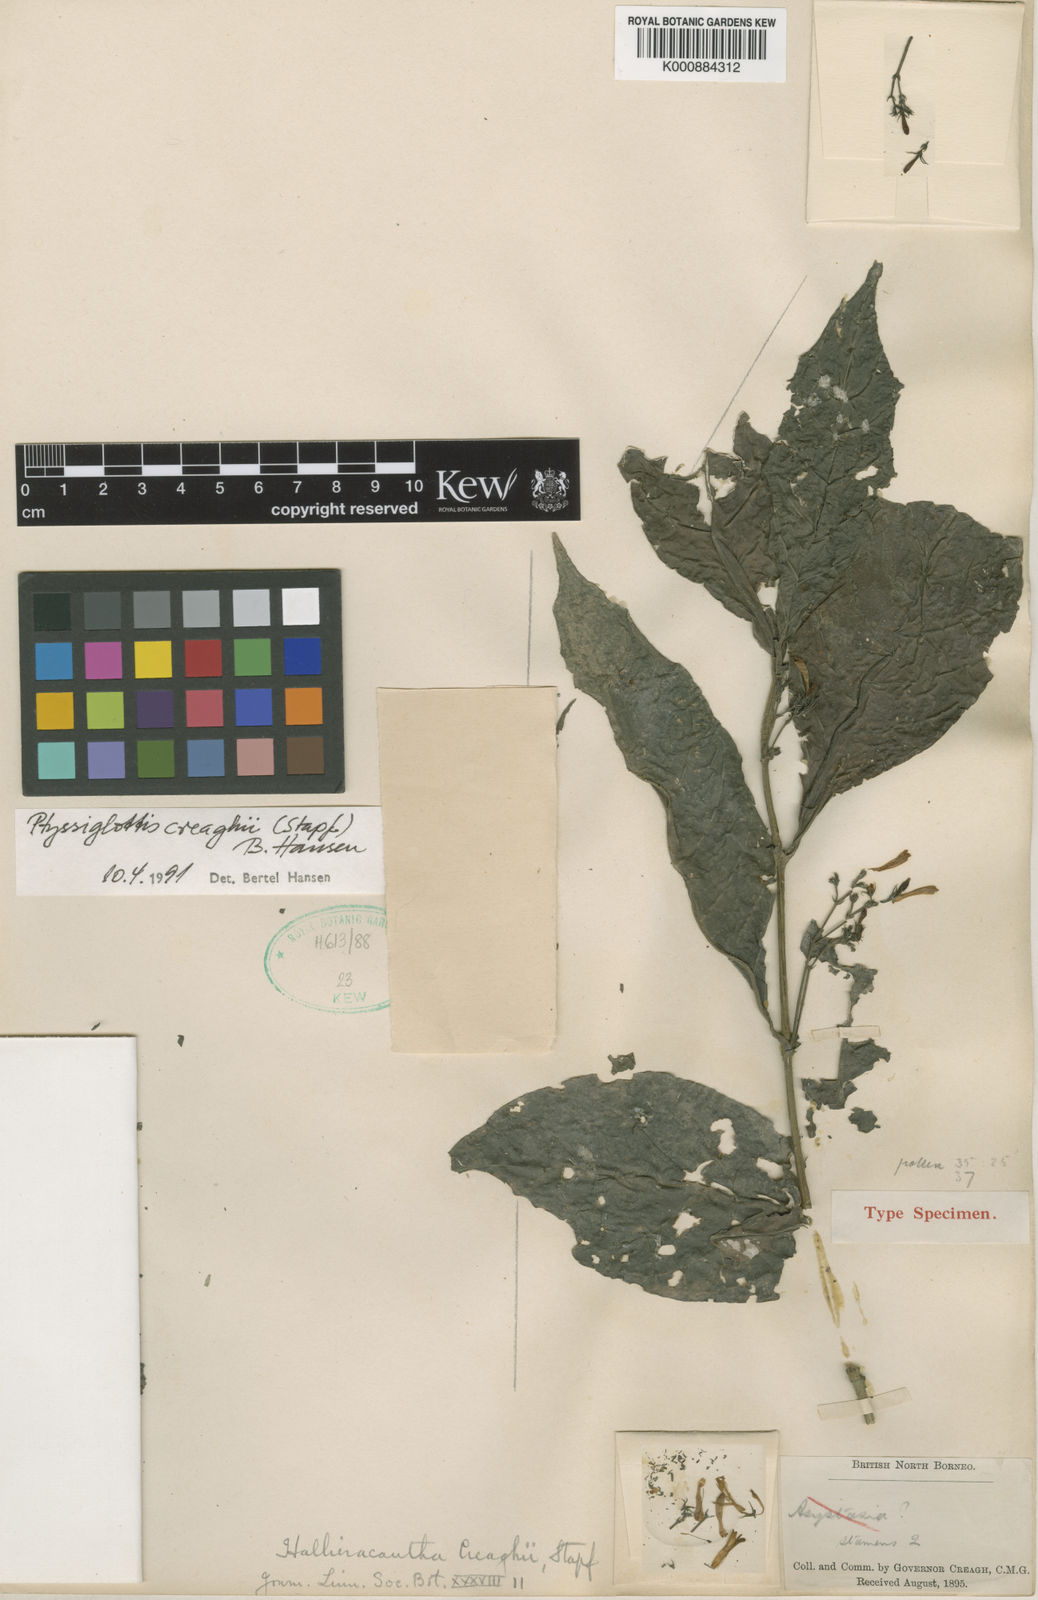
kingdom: Plantae
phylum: Tracheophyta
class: Magnoliopsida
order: Lamiales
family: Acanthaceae
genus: Ptyssiglottis
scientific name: Ptyssiglottis creaghii
